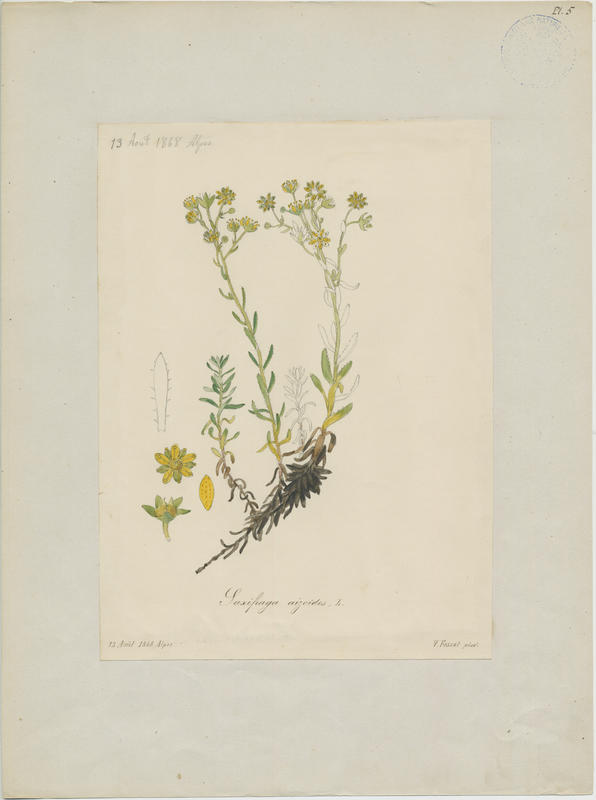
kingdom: Plantae
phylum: Tracheophyta
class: Magnoliopsida
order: Saxifragales
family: Saxifragaceae
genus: Saxifraga
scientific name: Saxifraga aizoides
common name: Yellow mountain saxifrage
